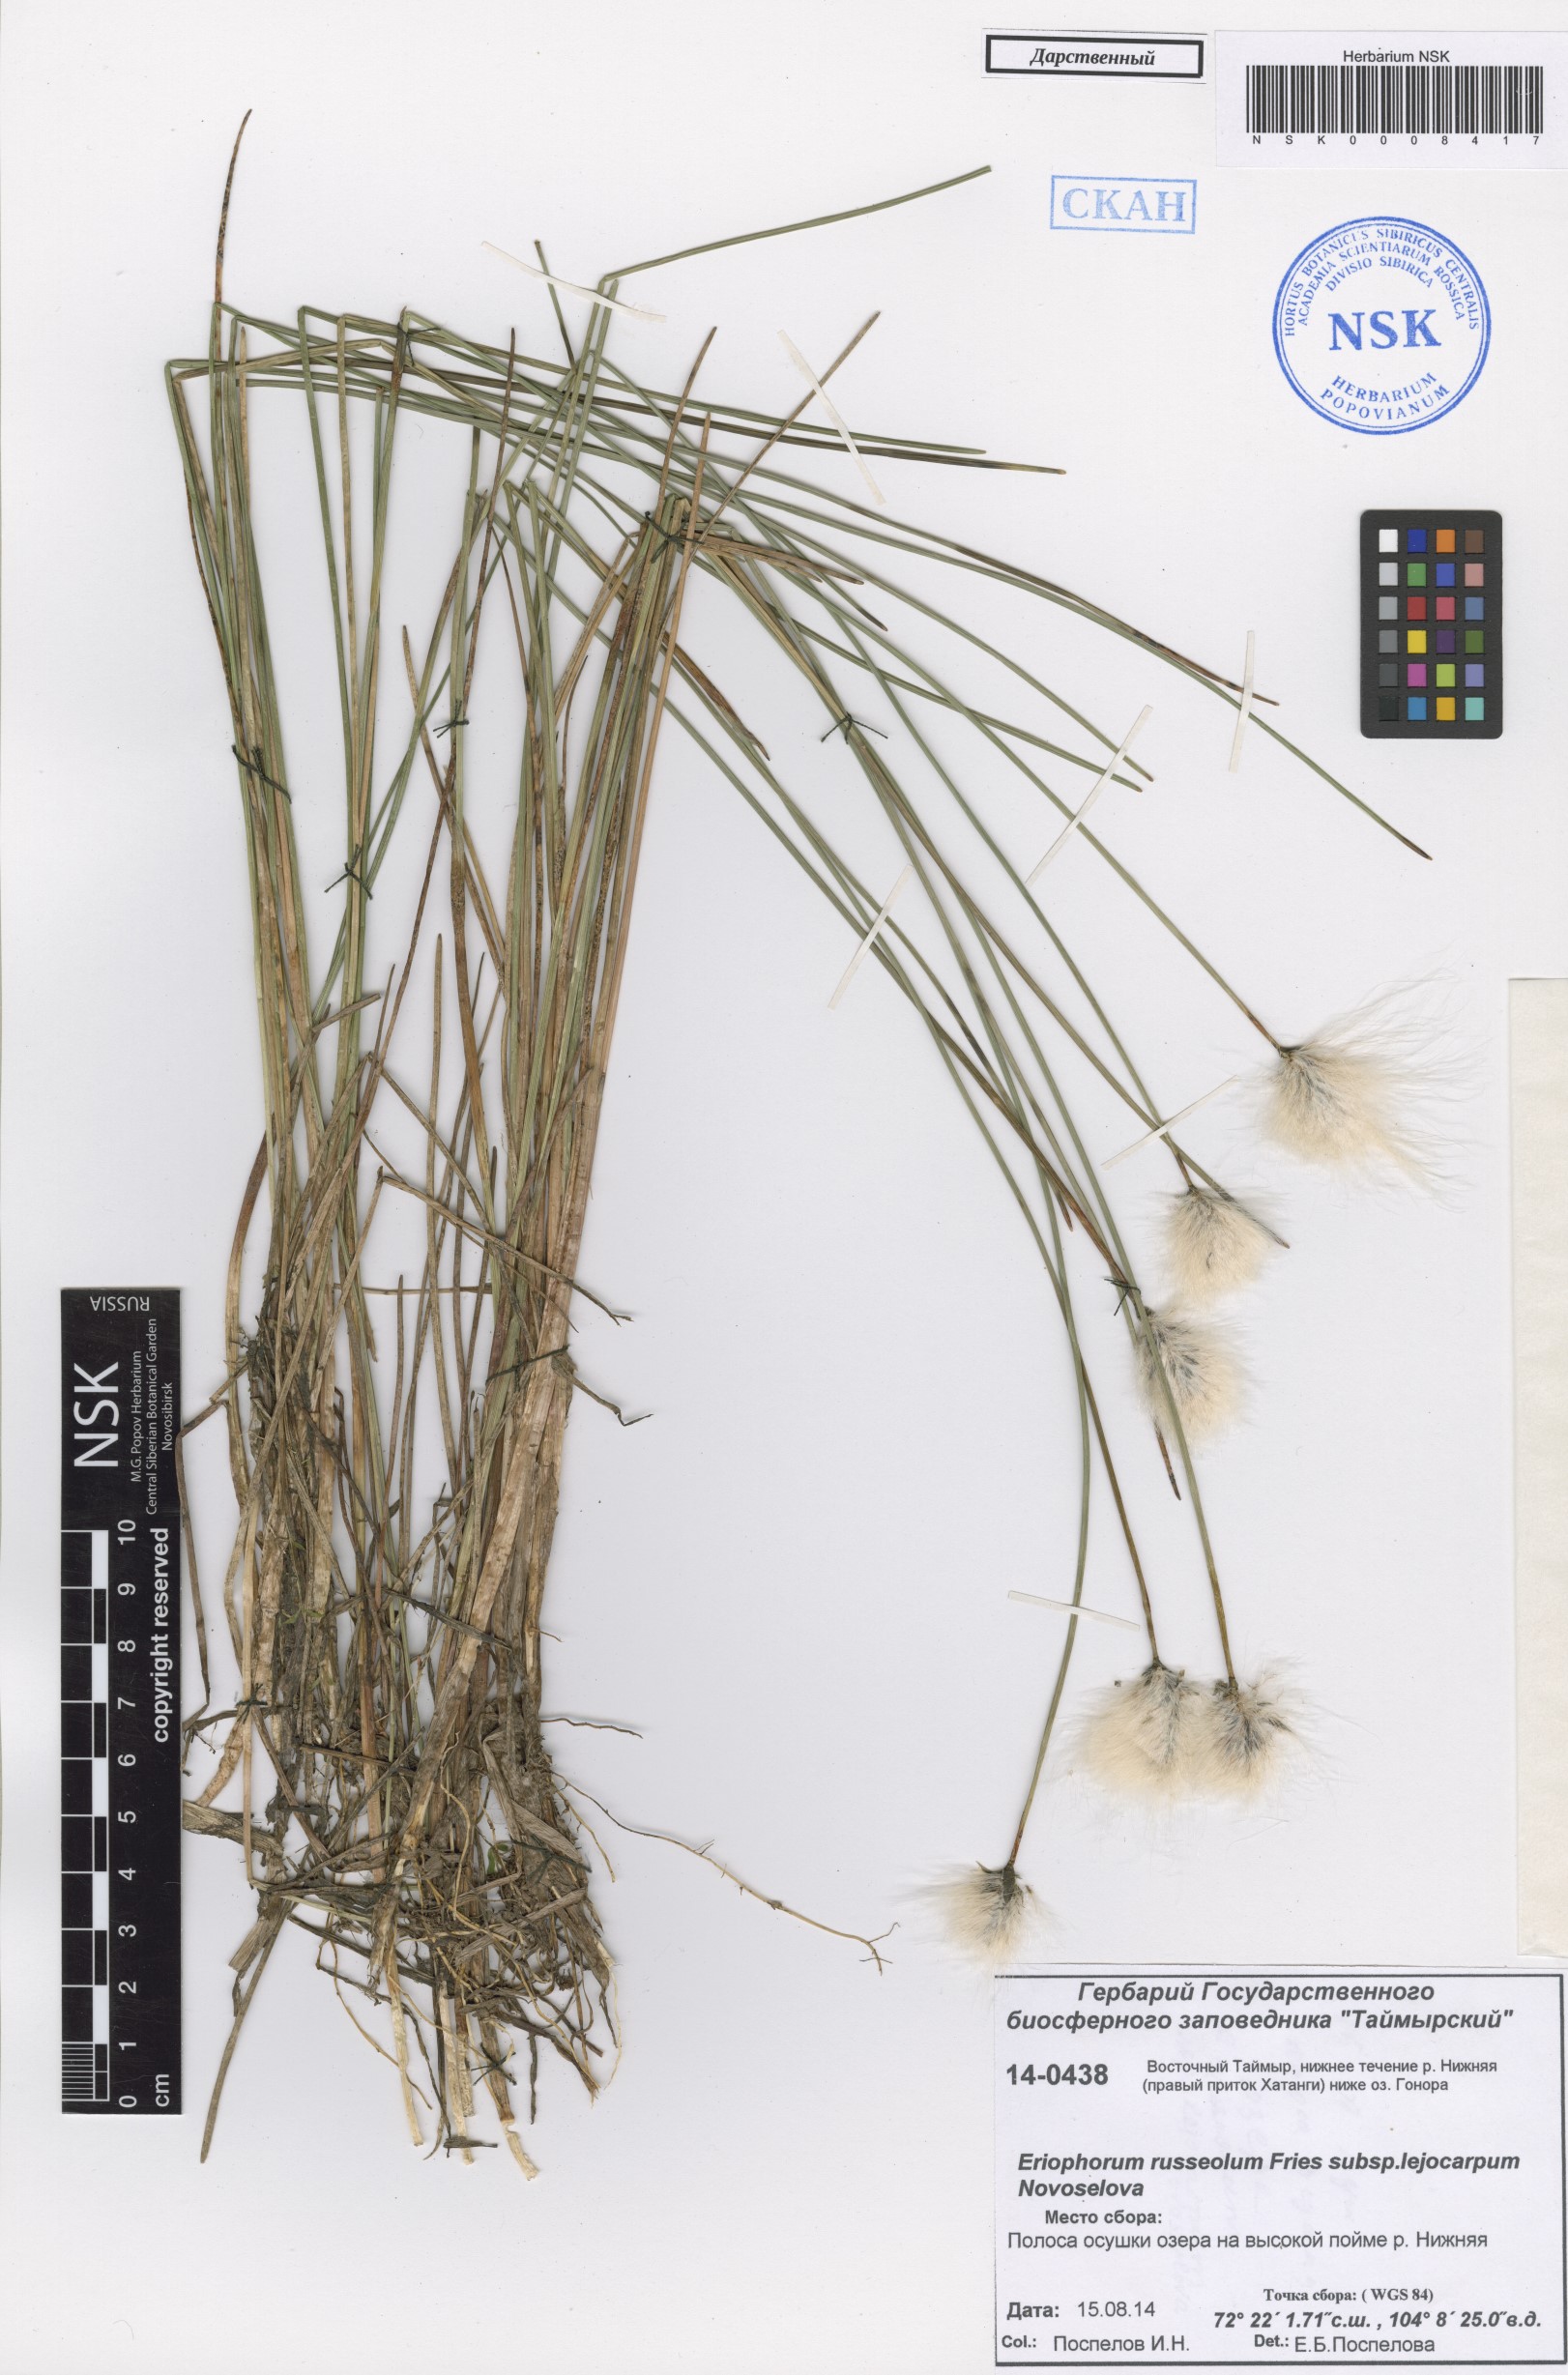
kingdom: Plantae
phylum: Tracheophyta
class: Liliopsida
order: Poales
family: Cyperaceae
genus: Eriophorum
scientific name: Eriophorum chamissonis
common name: Chamisso's cottongrass
